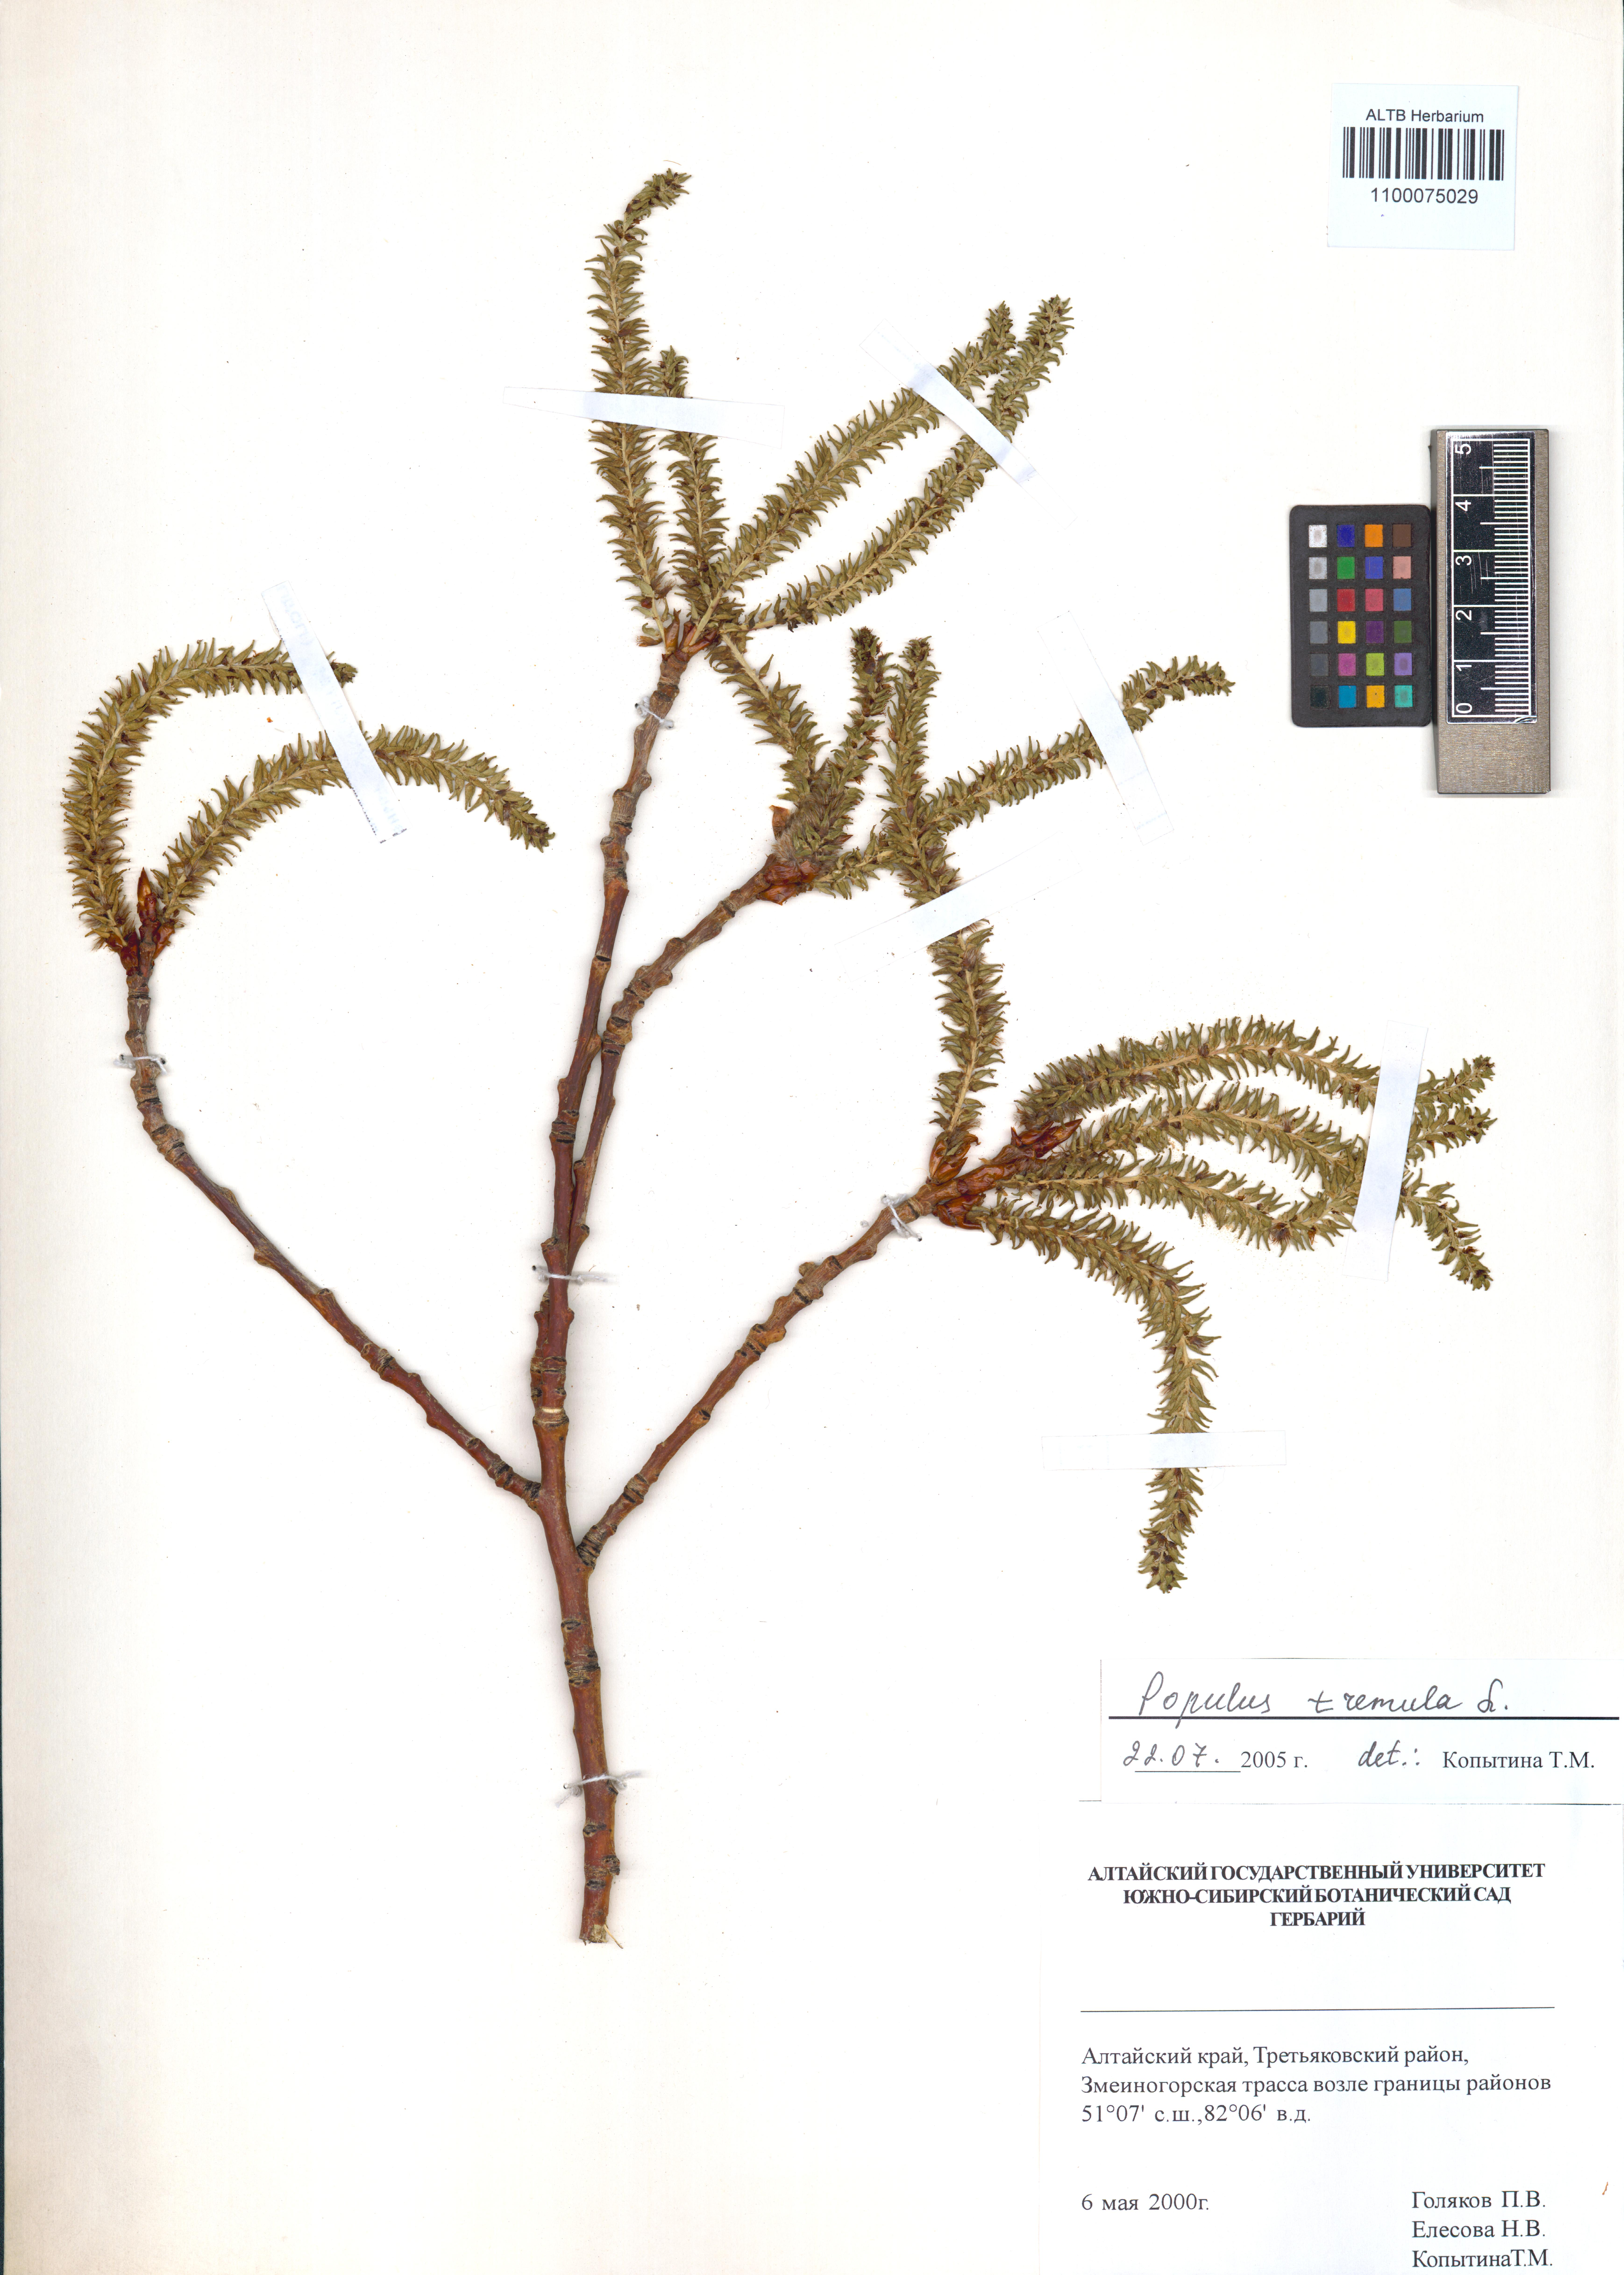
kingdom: Plantae
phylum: Tracheophyta
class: Magnoliopsida
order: Malpighiales
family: Salicaceae
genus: Populus
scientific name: Populus tremula
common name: European aspen
